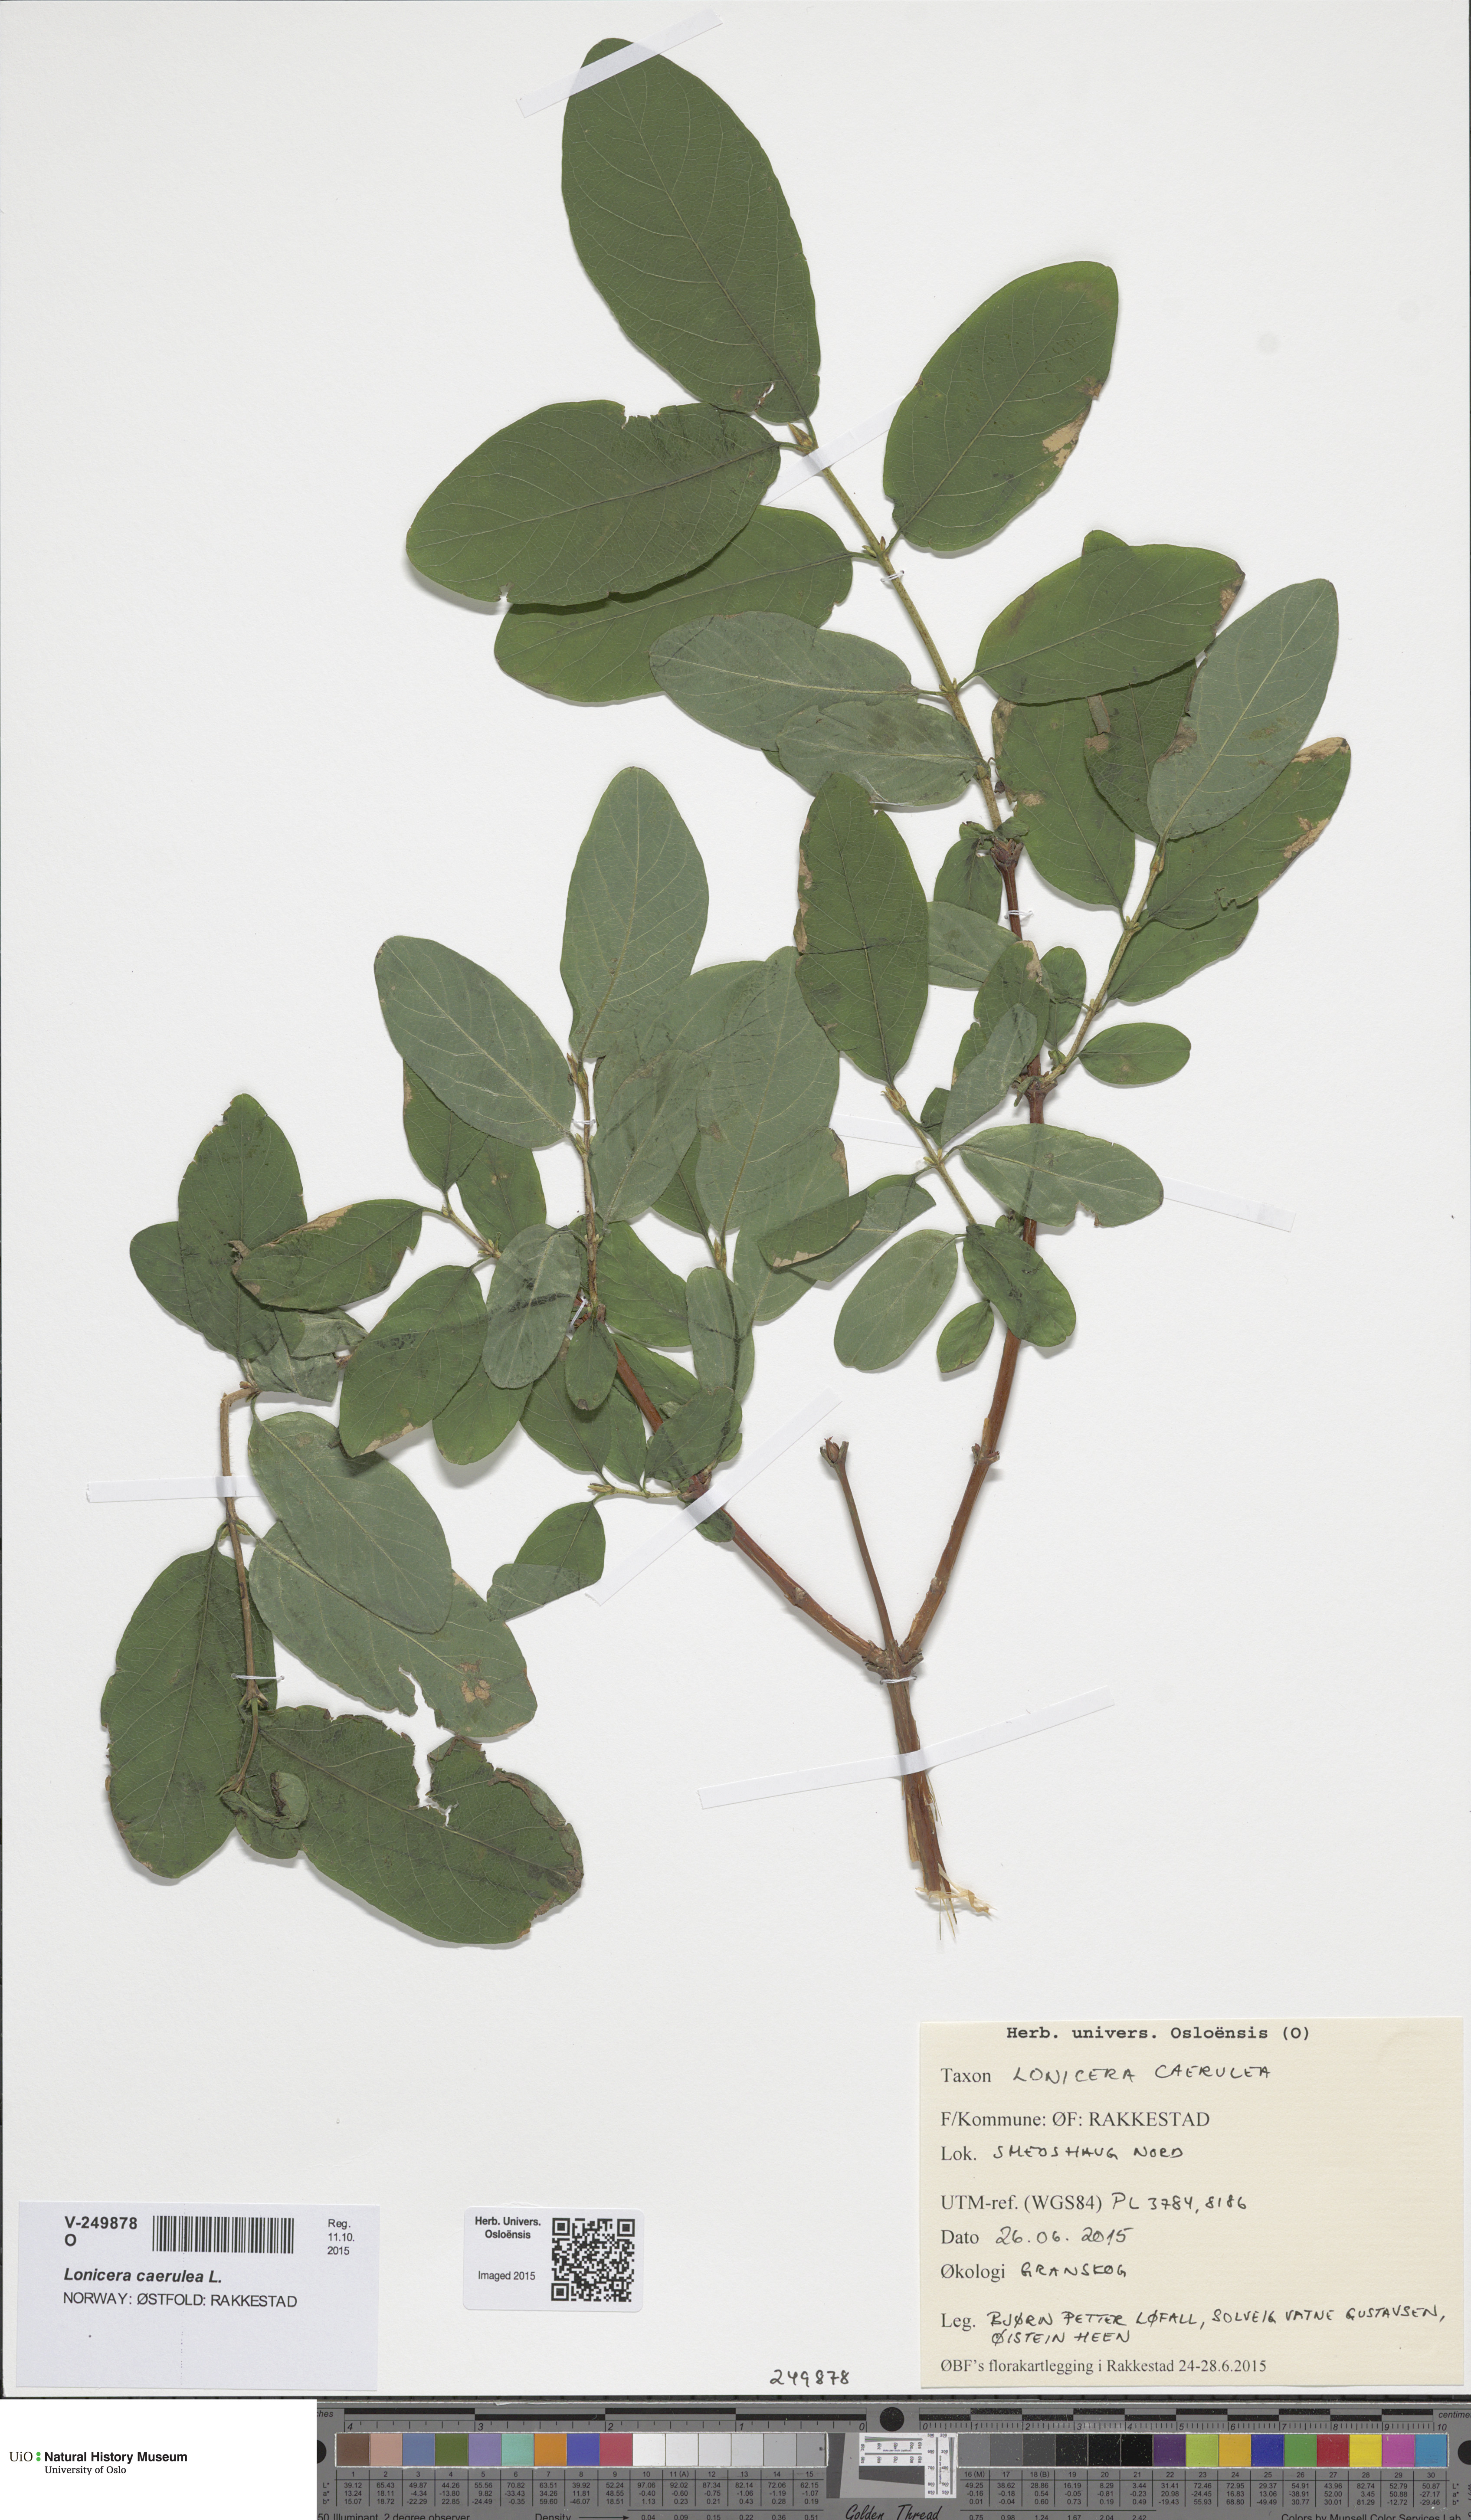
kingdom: Plantae
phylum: Tracheophyta
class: Magnoliopsida
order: Dipsacales
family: Caprifoliaceae
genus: Lonicera
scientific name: Lonicera caerulea
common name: Blue honeysuckle
